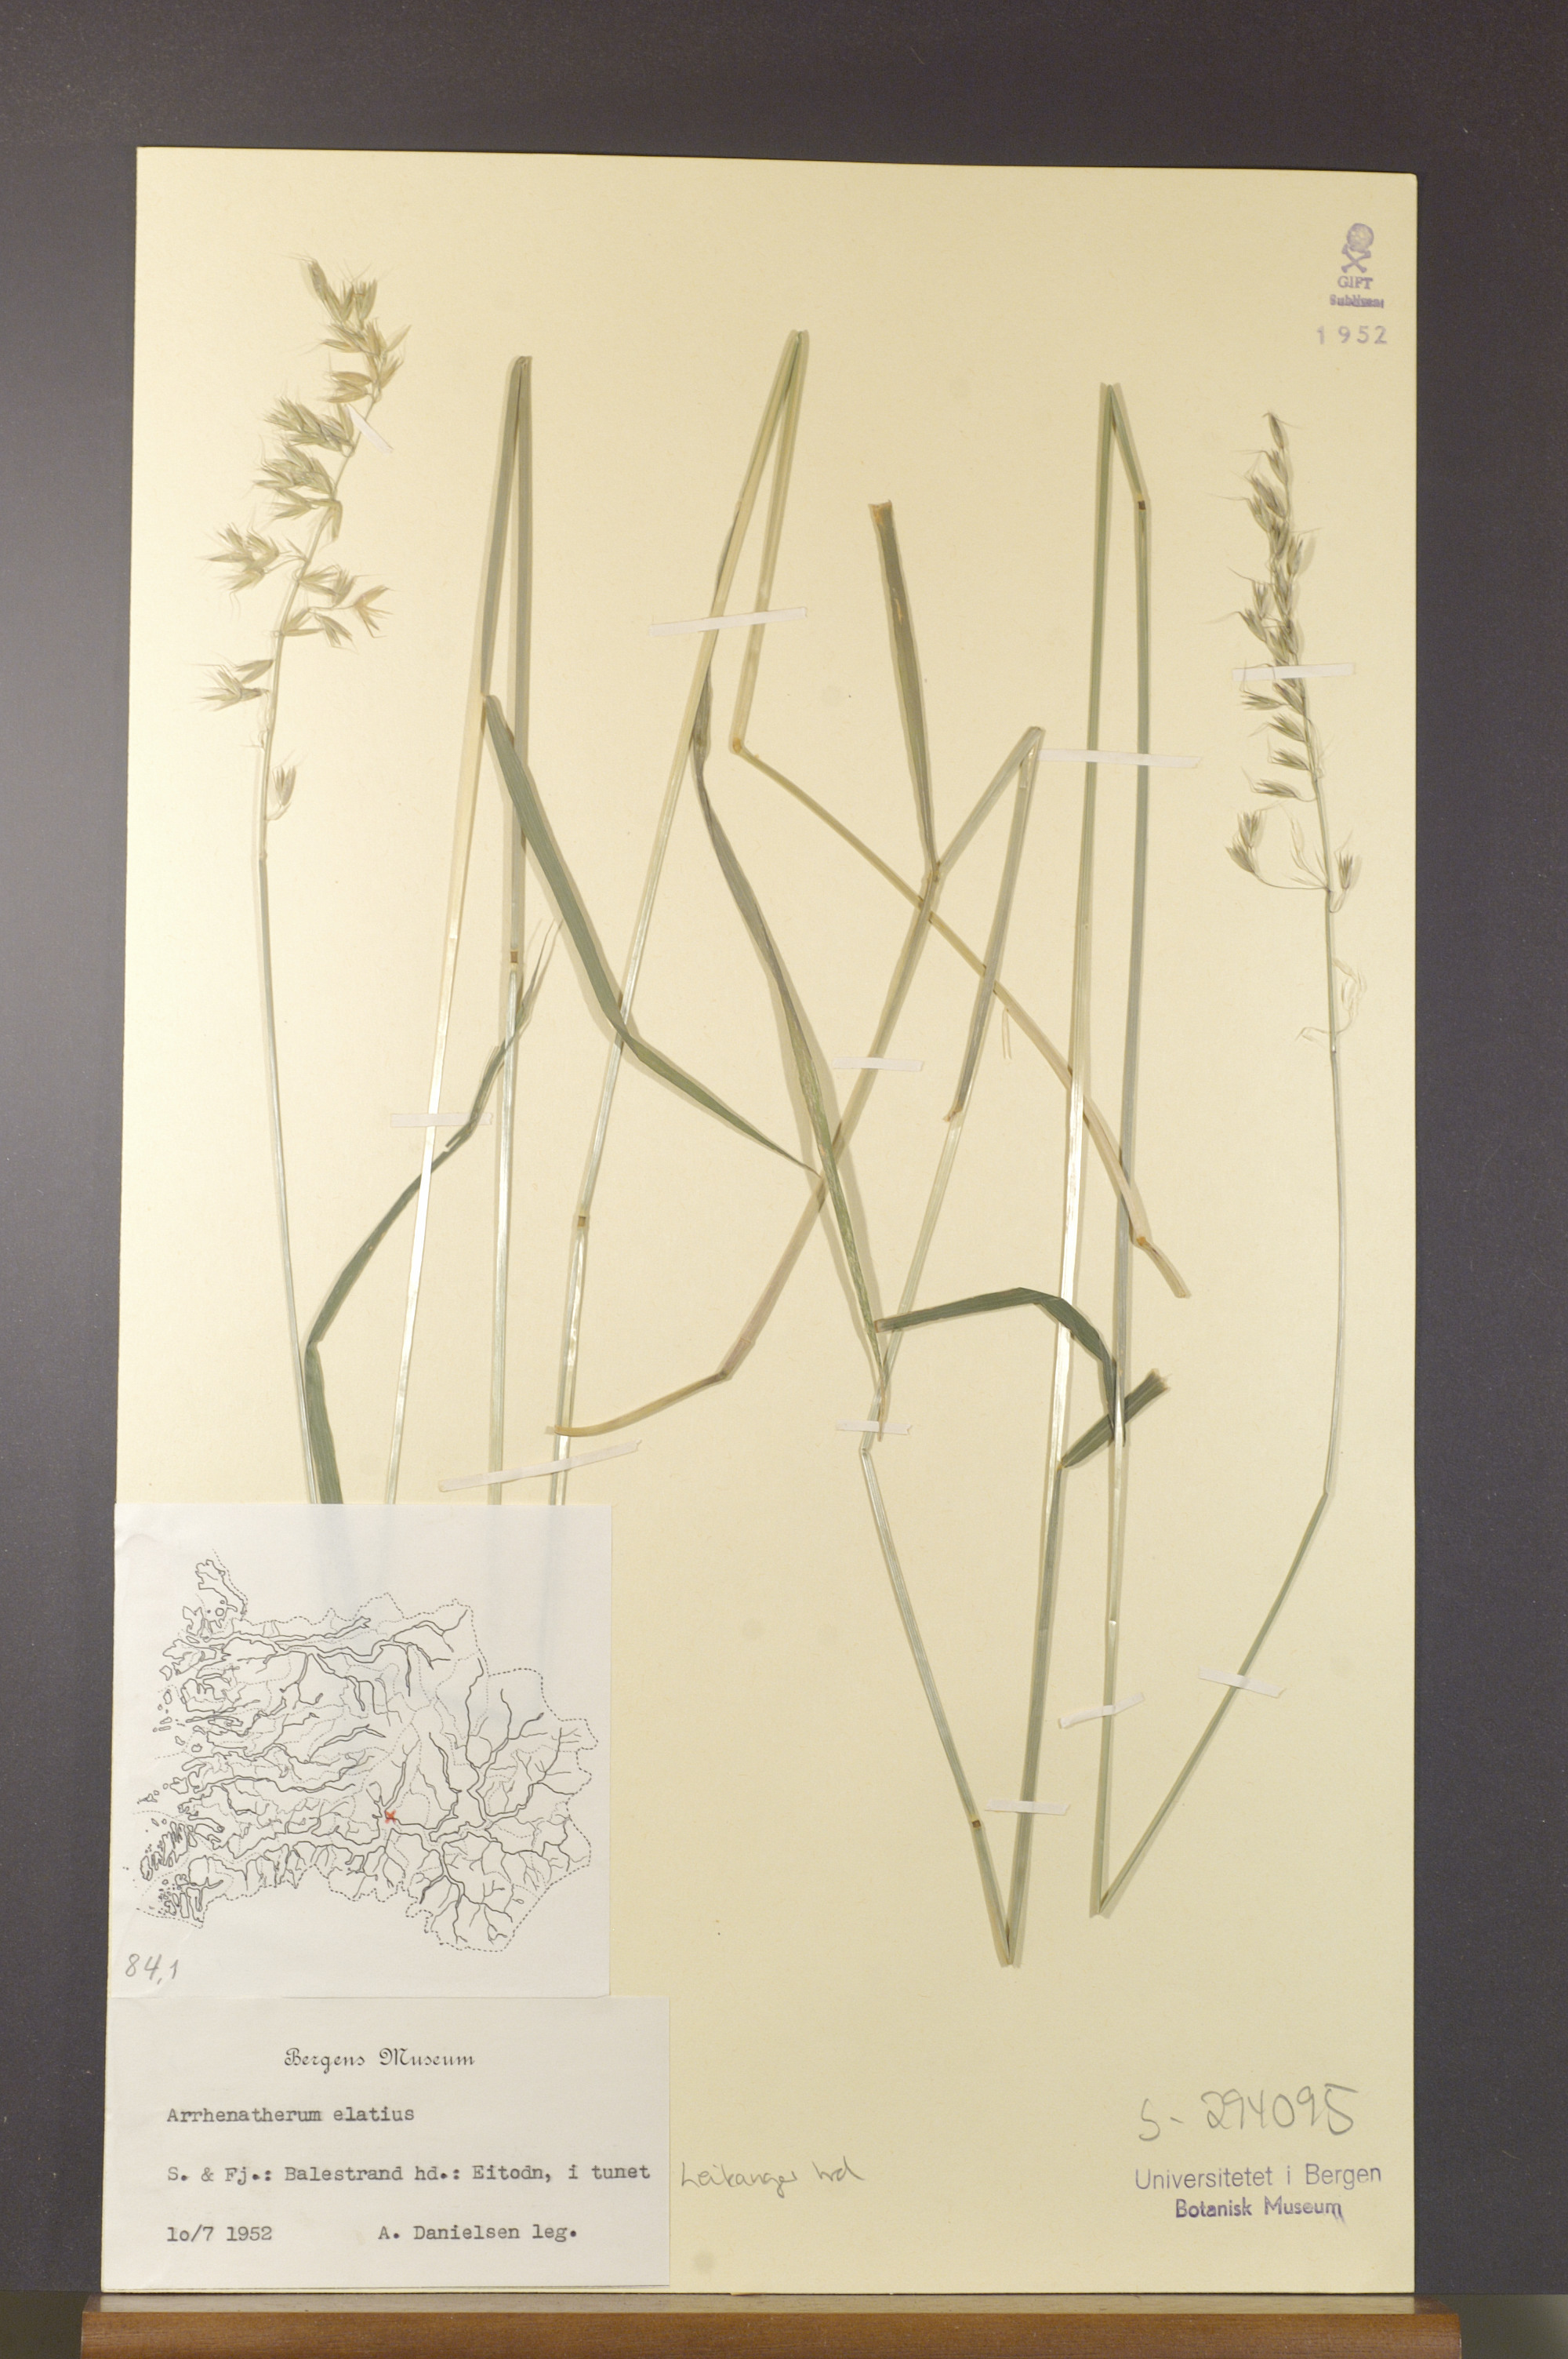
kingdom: Plantae
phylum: Tracheophyta
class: Liliopsida
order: Poales
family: Poaceae
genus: Arrhenatherum
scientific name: Arrhenatherum elatius
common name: Tall oatgrass
